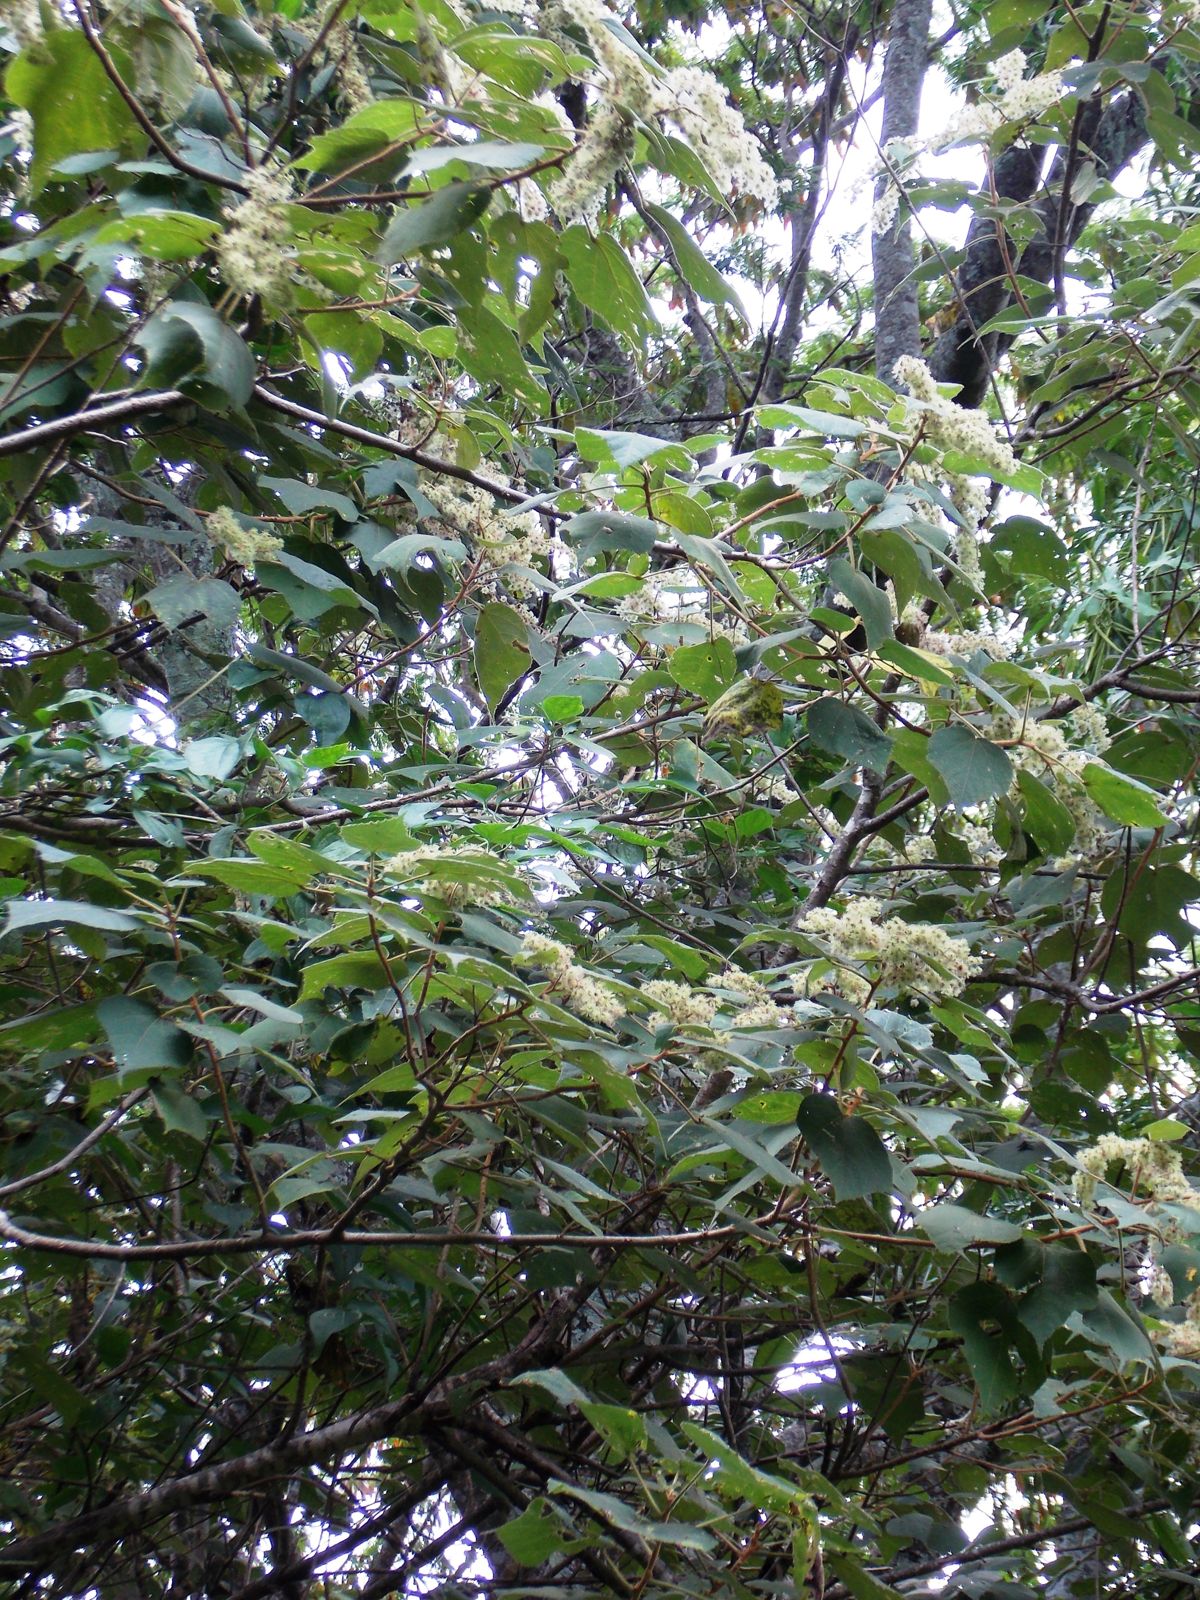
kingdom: Plantae
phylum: Tracheophyta
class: Magnoliopsida
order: Malvales
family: Malvaceae
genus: Triumfetta
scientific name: Triumfetta calderonii
